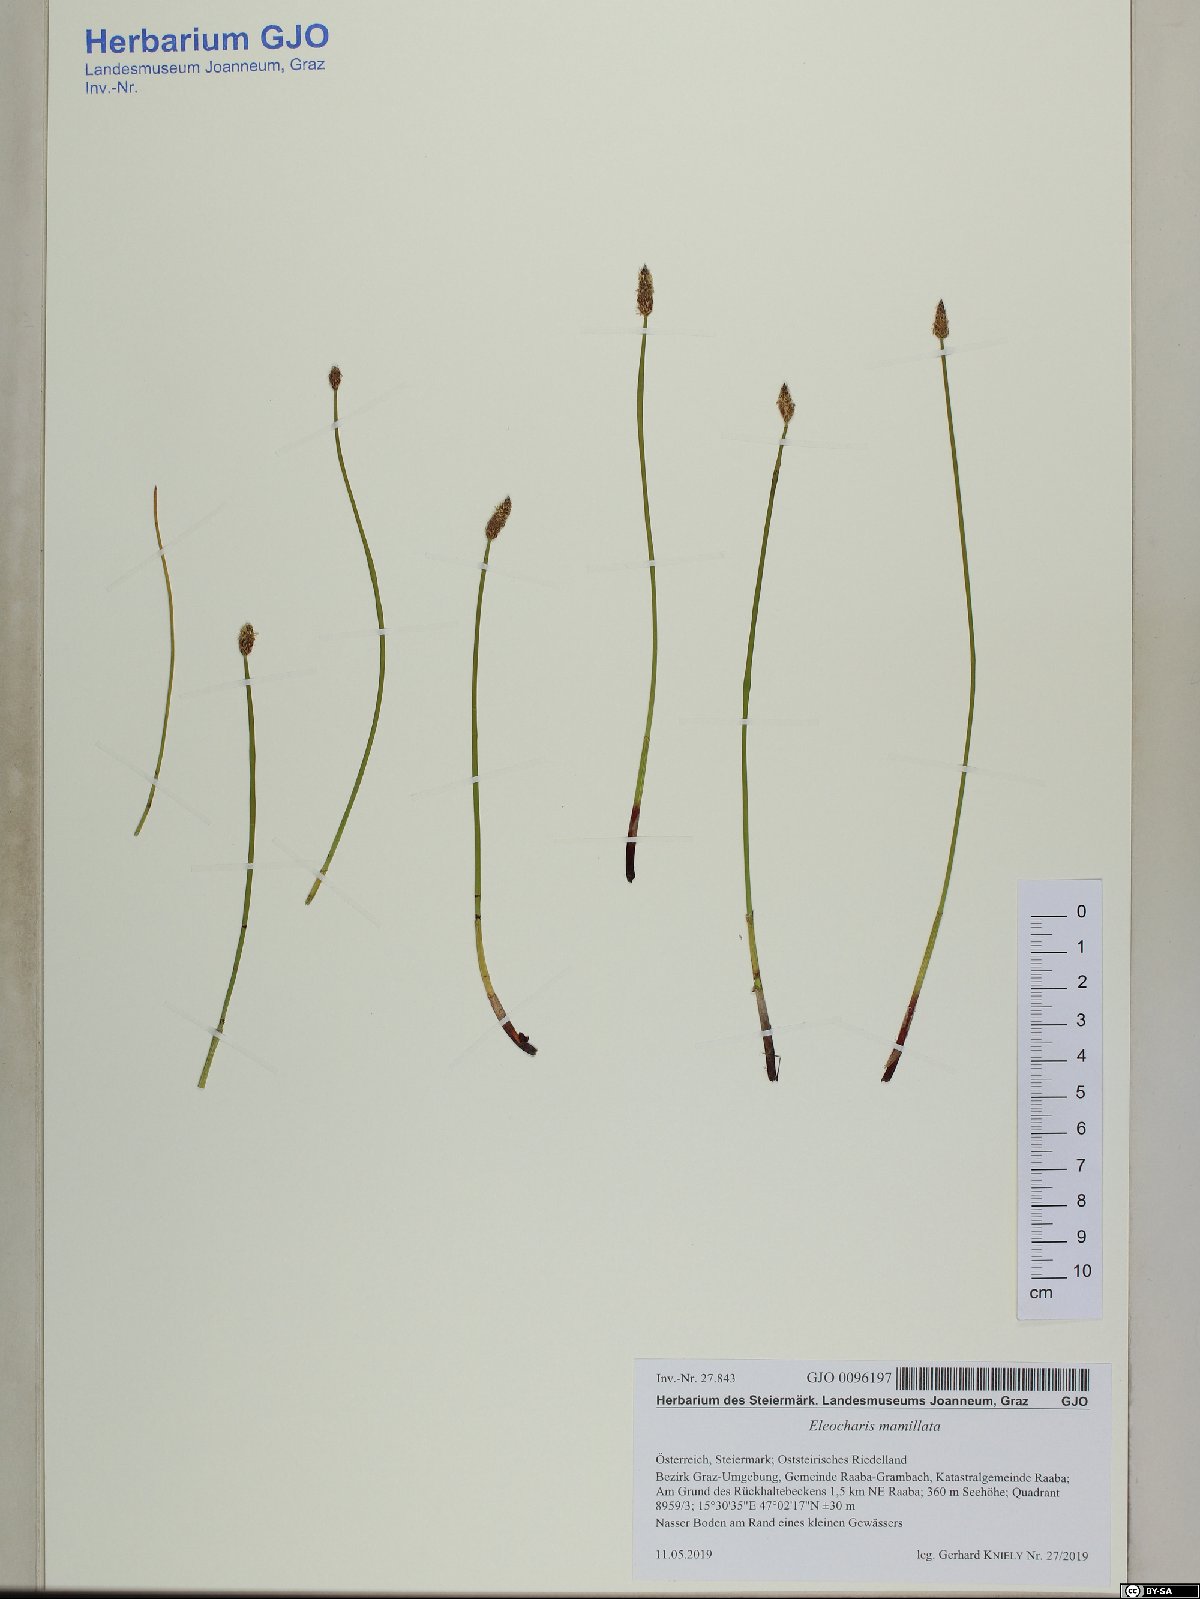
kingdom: Plantae
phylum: Tracheophyta
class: Liliopsida
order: Poales
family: Cyperaceae
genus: Eleocharis
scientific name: Eleocharis mamillata
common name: Northern spike-rush
